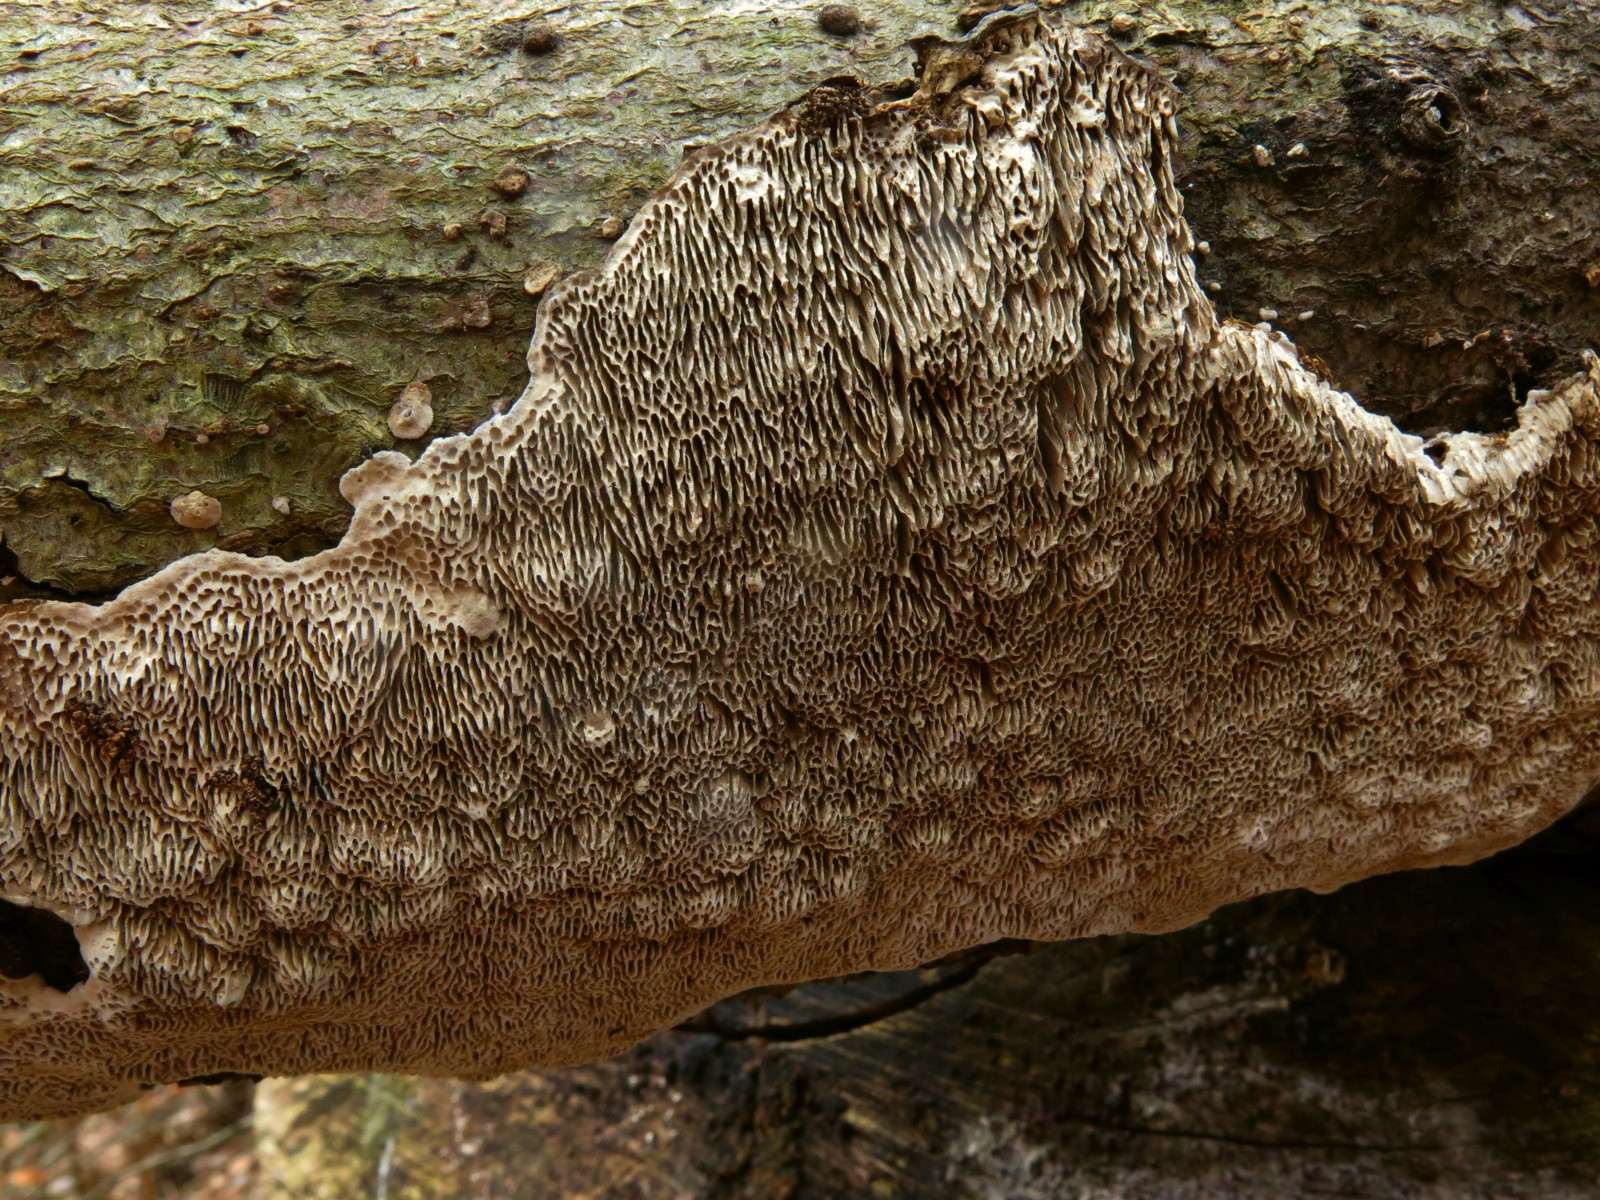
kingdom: Fungi
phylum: Basidiomycota
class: Agaricomycetes
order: Polyporales
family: Polyporaceae
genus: Podofomes
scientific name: Podofomes mollis
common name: blød begporesvamp
